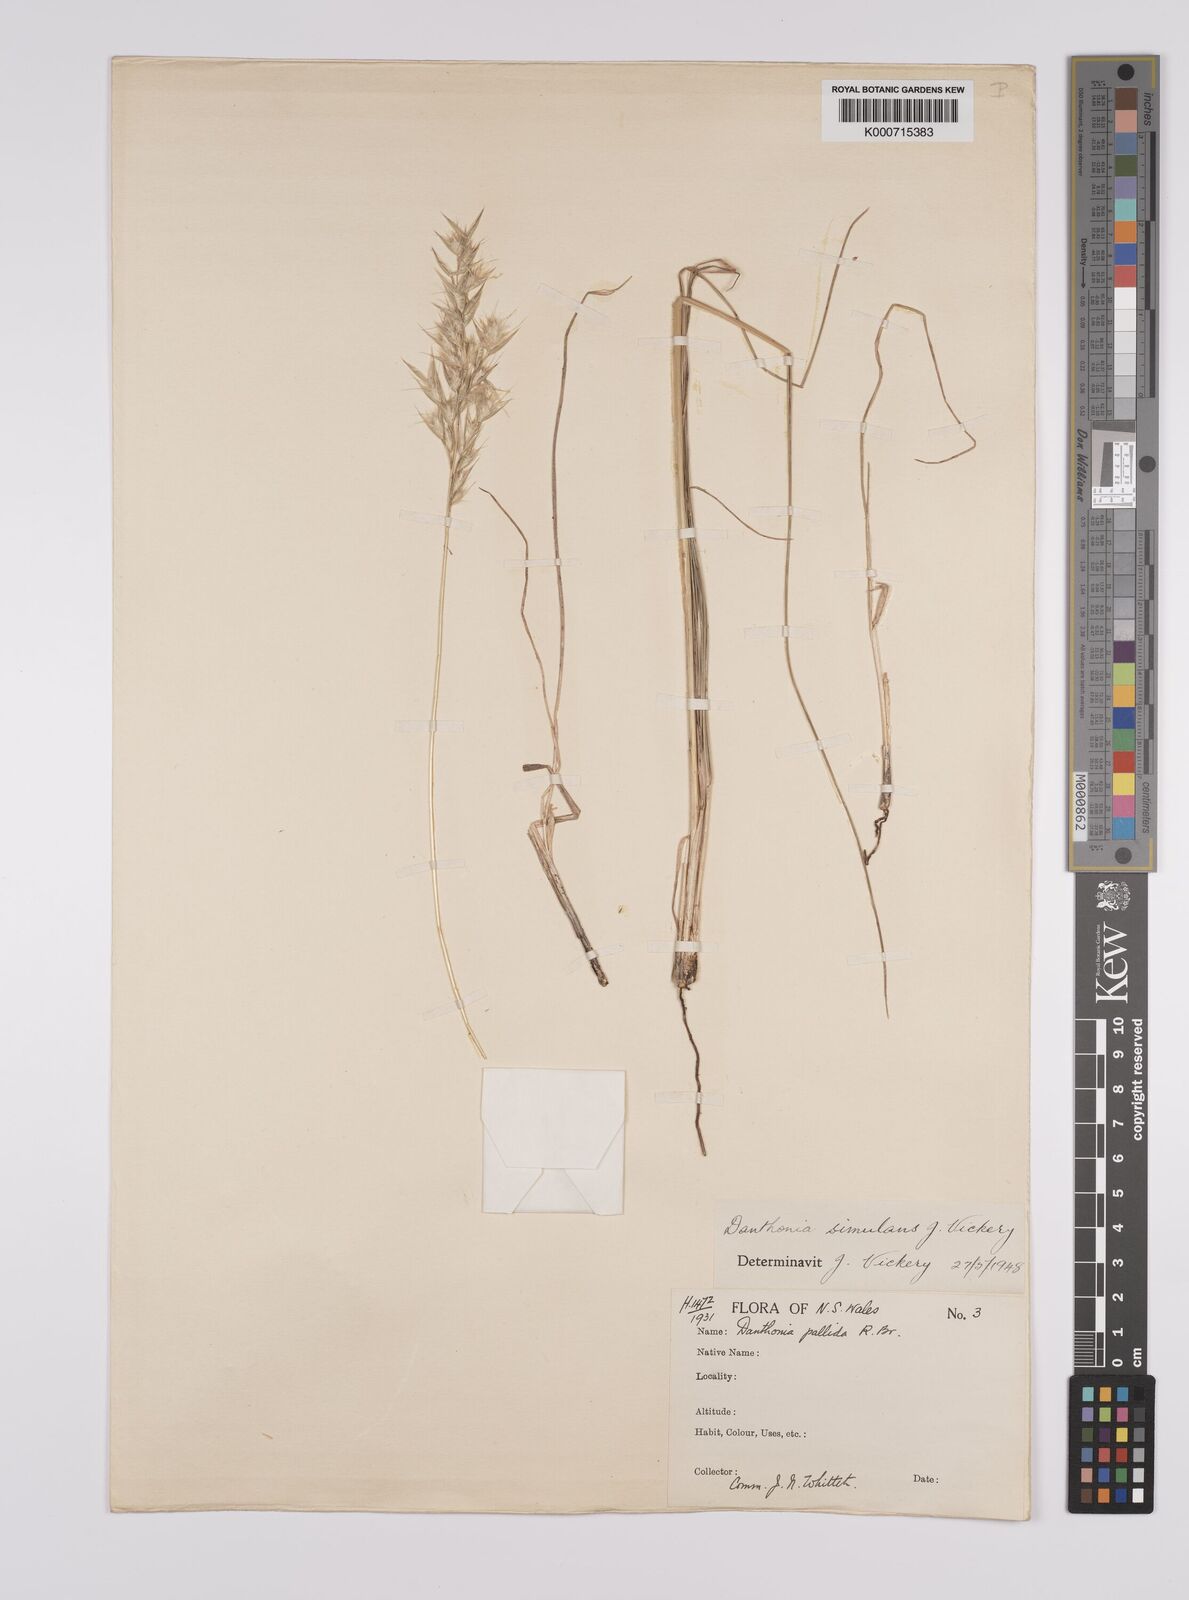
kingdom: Plantae
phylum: Tracheophyta
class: Liliopsida
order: Poales
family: Poaceae
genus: Rytidosperma
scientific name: Rytidosperma bipartitum
